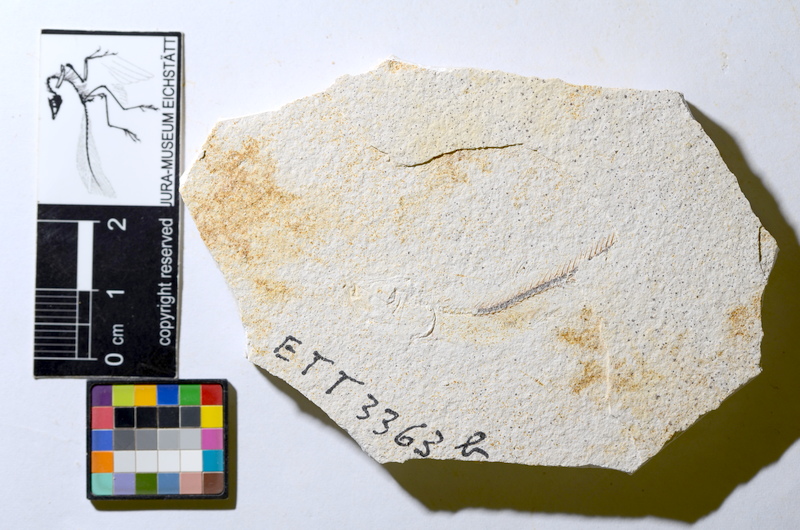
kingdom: Animalia
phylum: Chordata
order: Salmoniformes
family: Orthogonikleithridae
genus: Orthogonikleithrus
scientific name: Orthogonikleithrus hoelli
